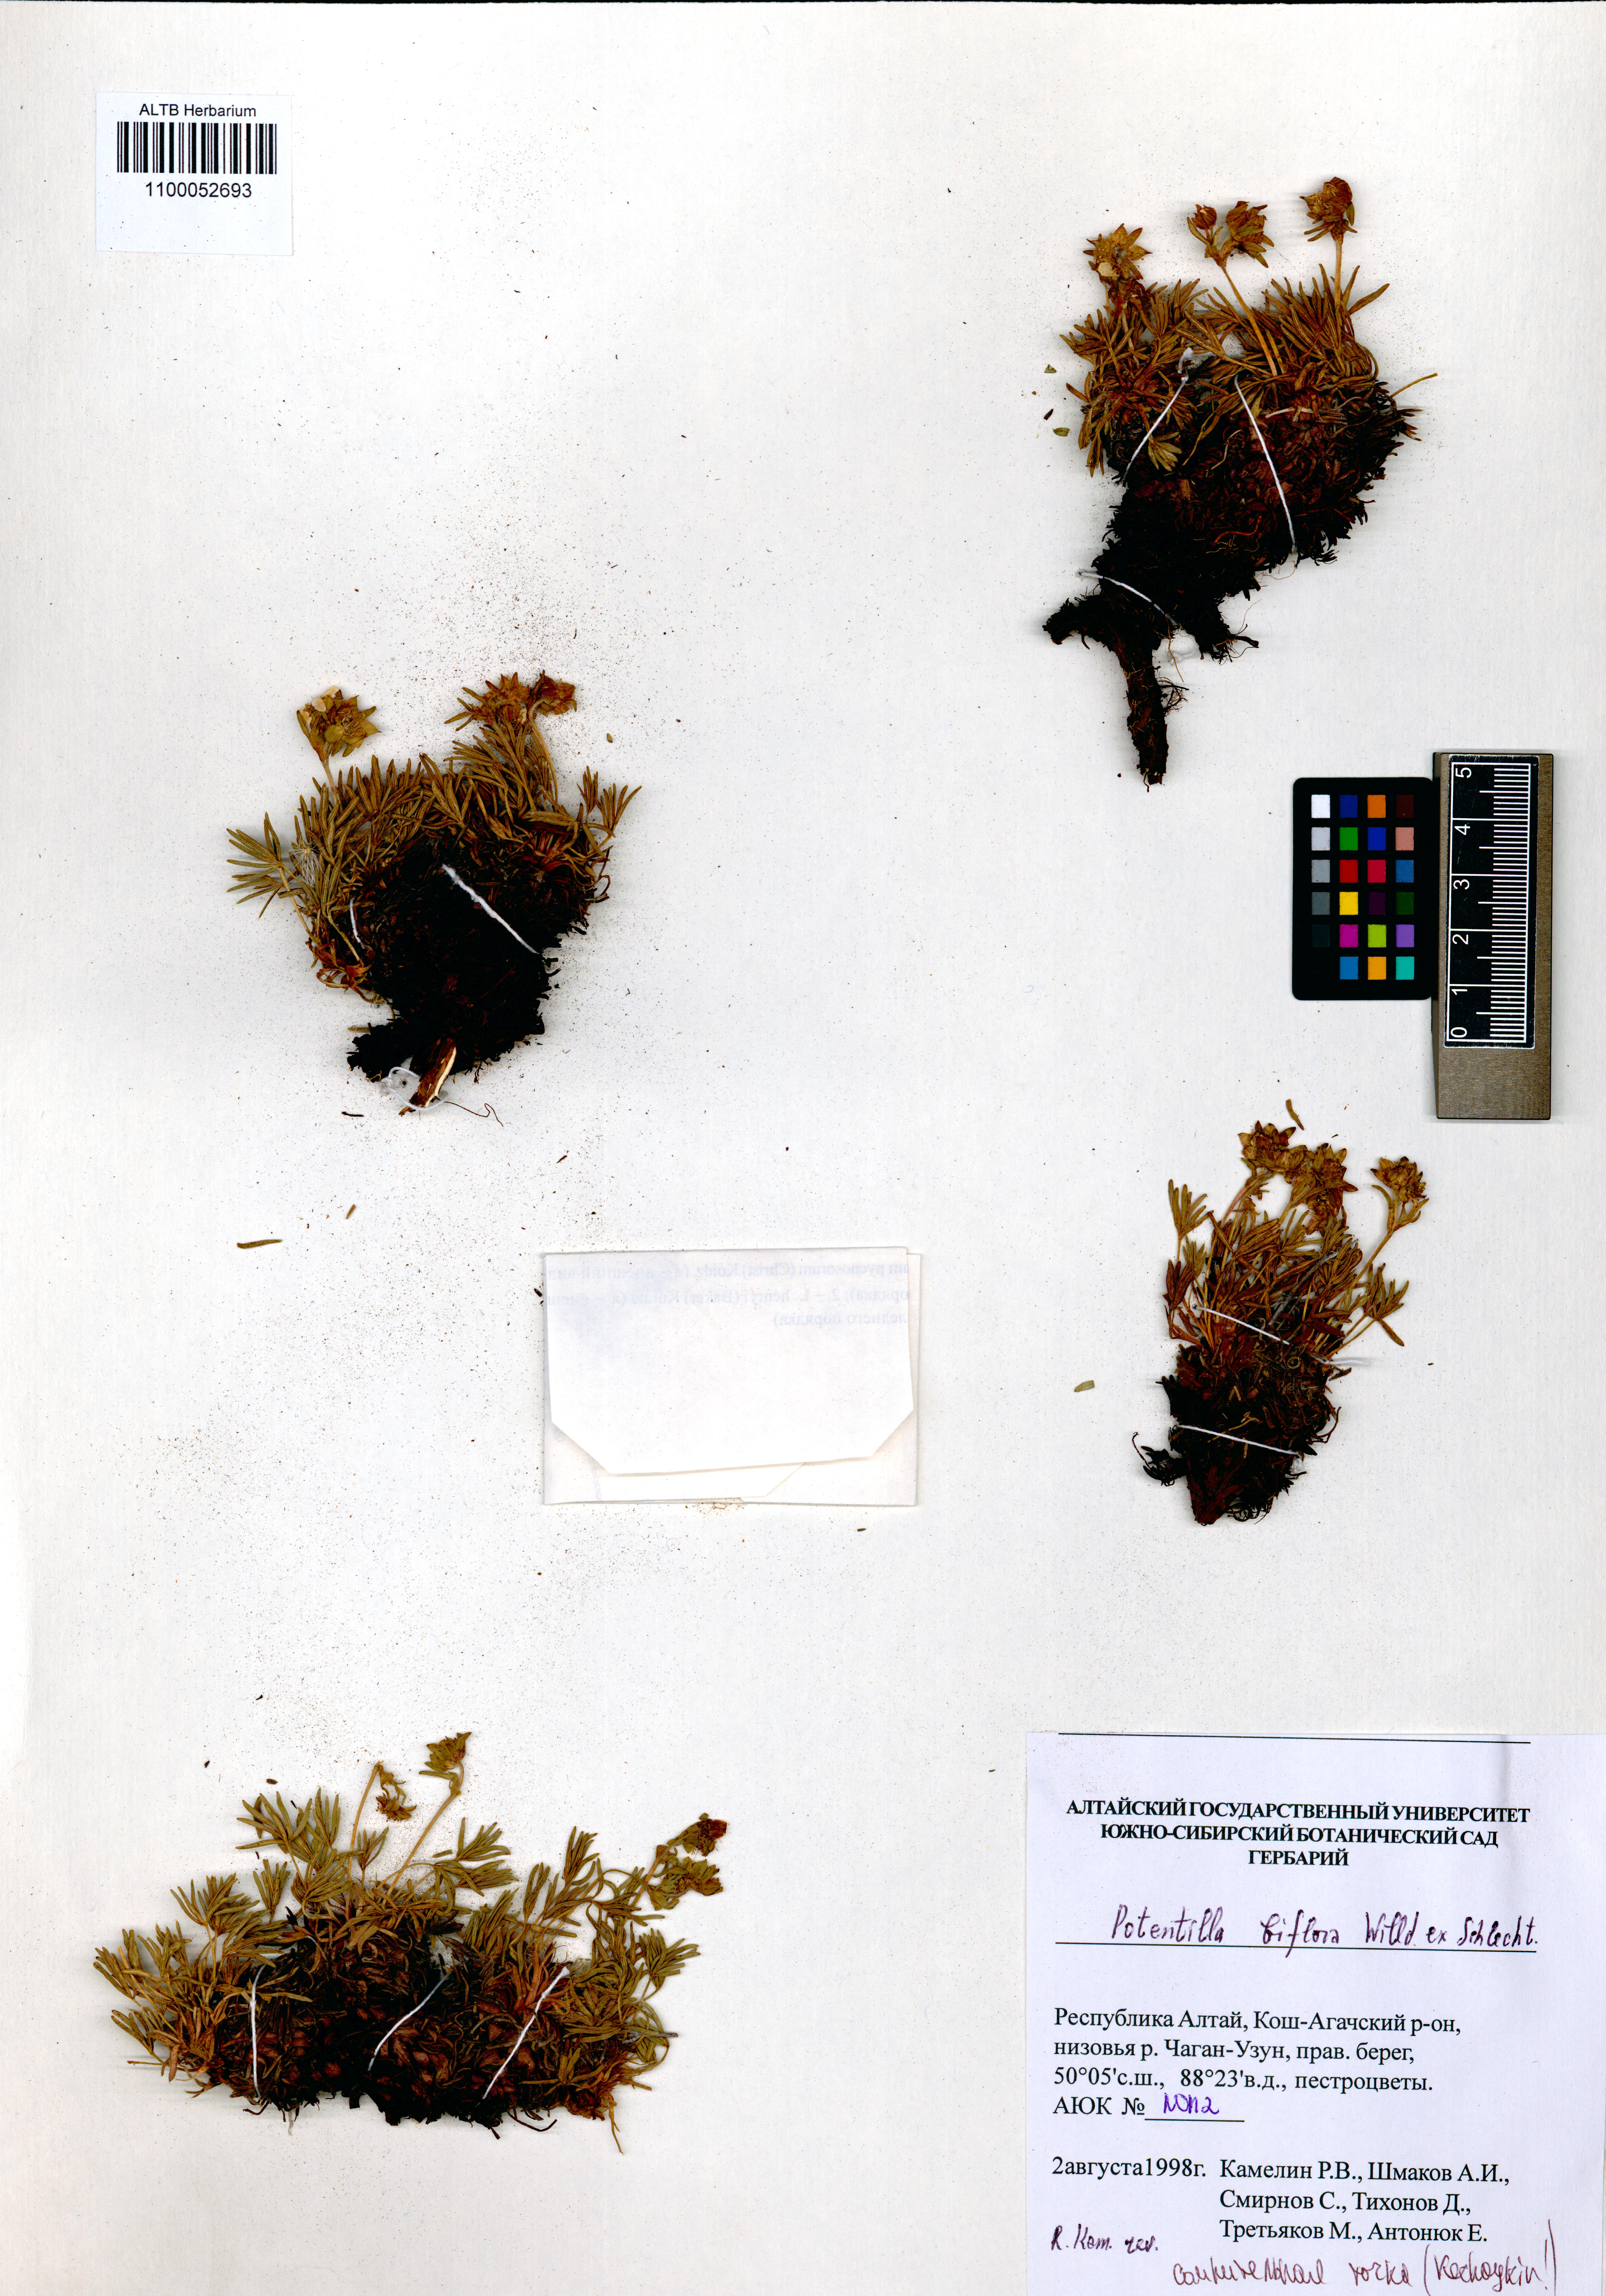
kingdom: Plantae
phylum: Tracheophyta
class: Magnoliopsida
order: Rosales
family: Rosaceae
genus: Potentilla
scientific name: Potentilla biflora
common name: Two-flowered cinquefoil
